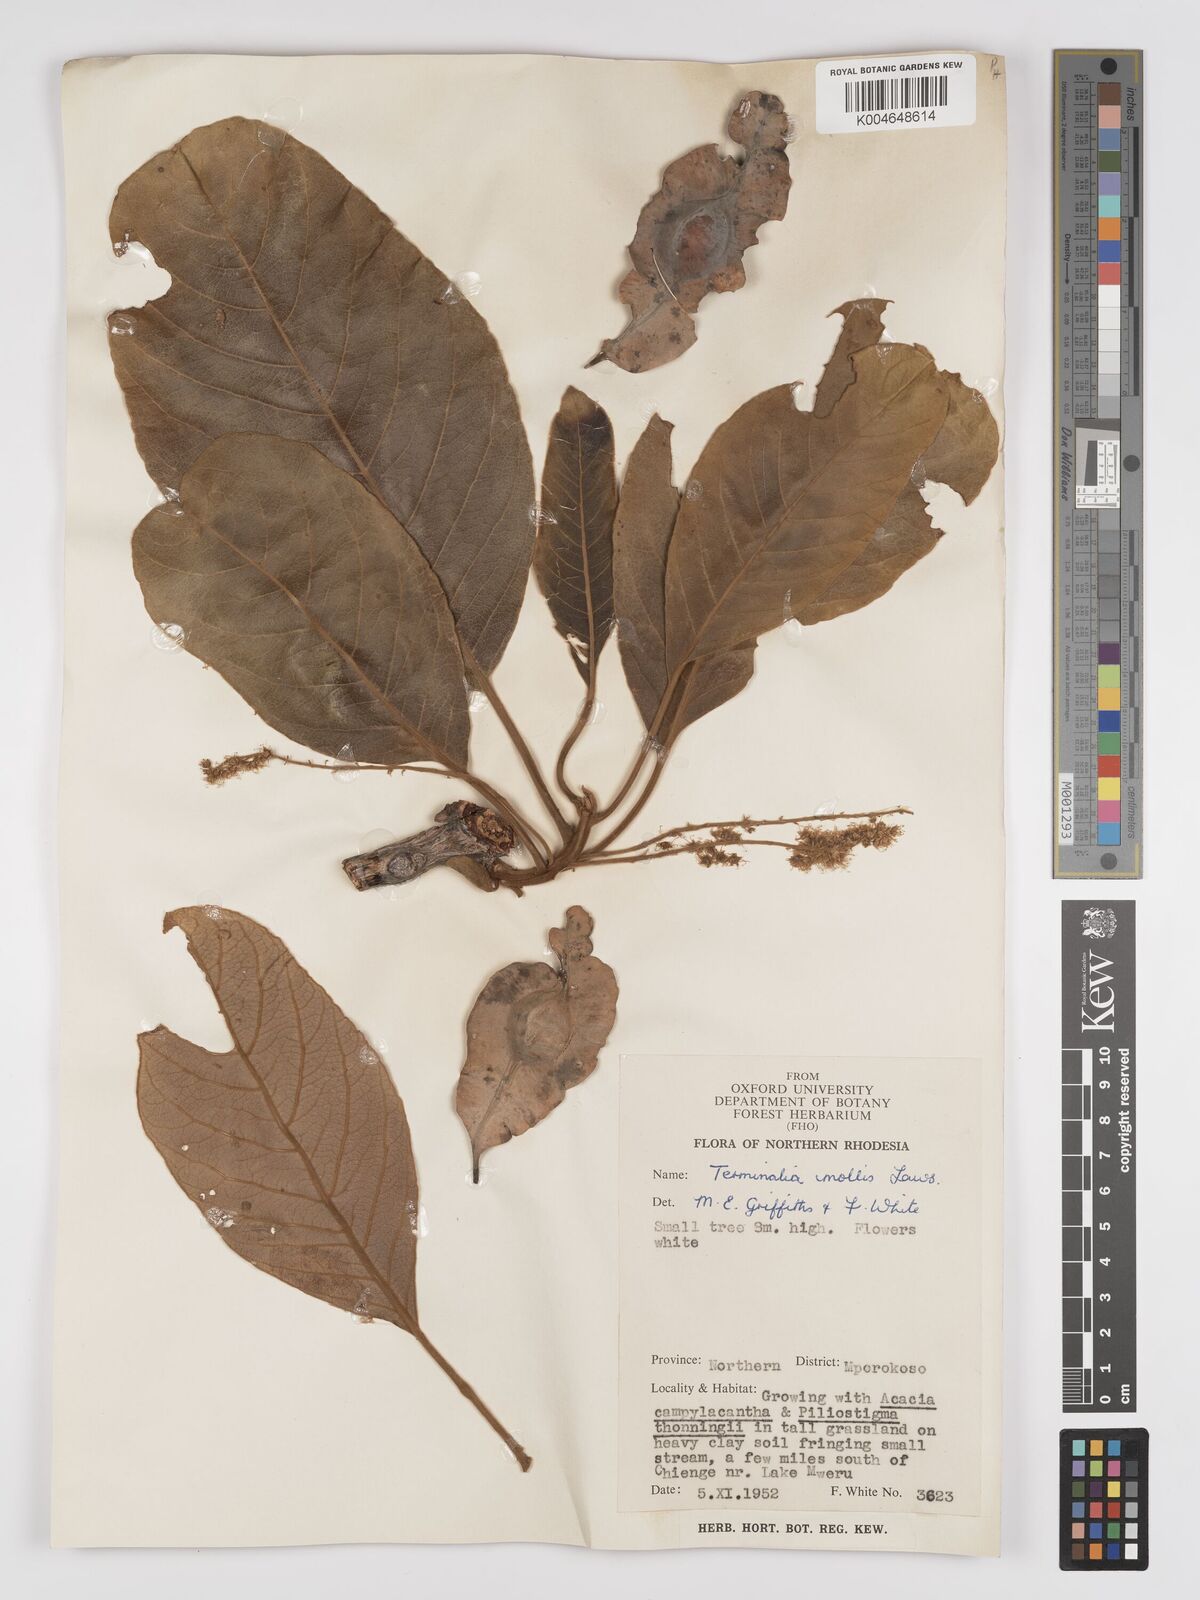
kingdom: Plantae
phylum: Tracheophyta
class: Magnoliopsida
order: Myrtales
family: Combretaceae
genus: Terminalia
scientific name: Terminalia
